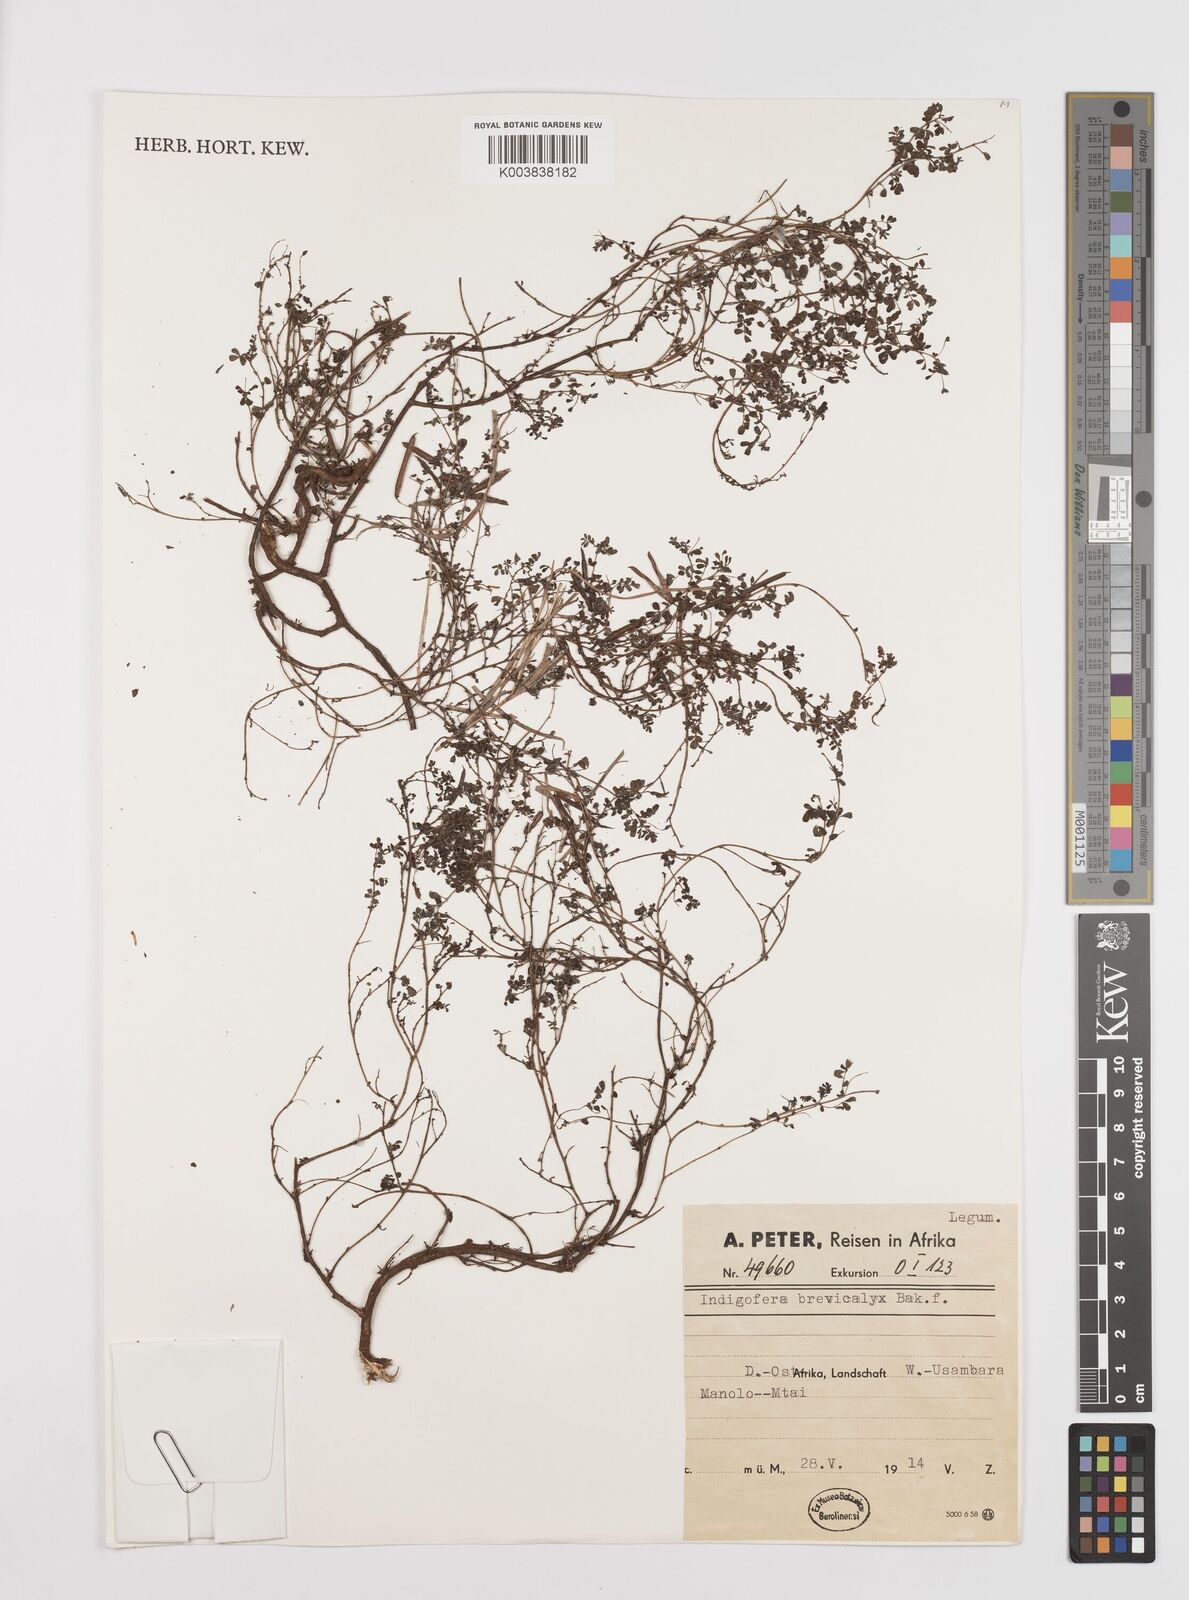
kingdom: Plantae
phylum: Tracheophyta
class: Magnoliopsida
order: Fabales
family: Fabaceae
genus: Indigofera
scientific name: Indigofera brevicalyx
